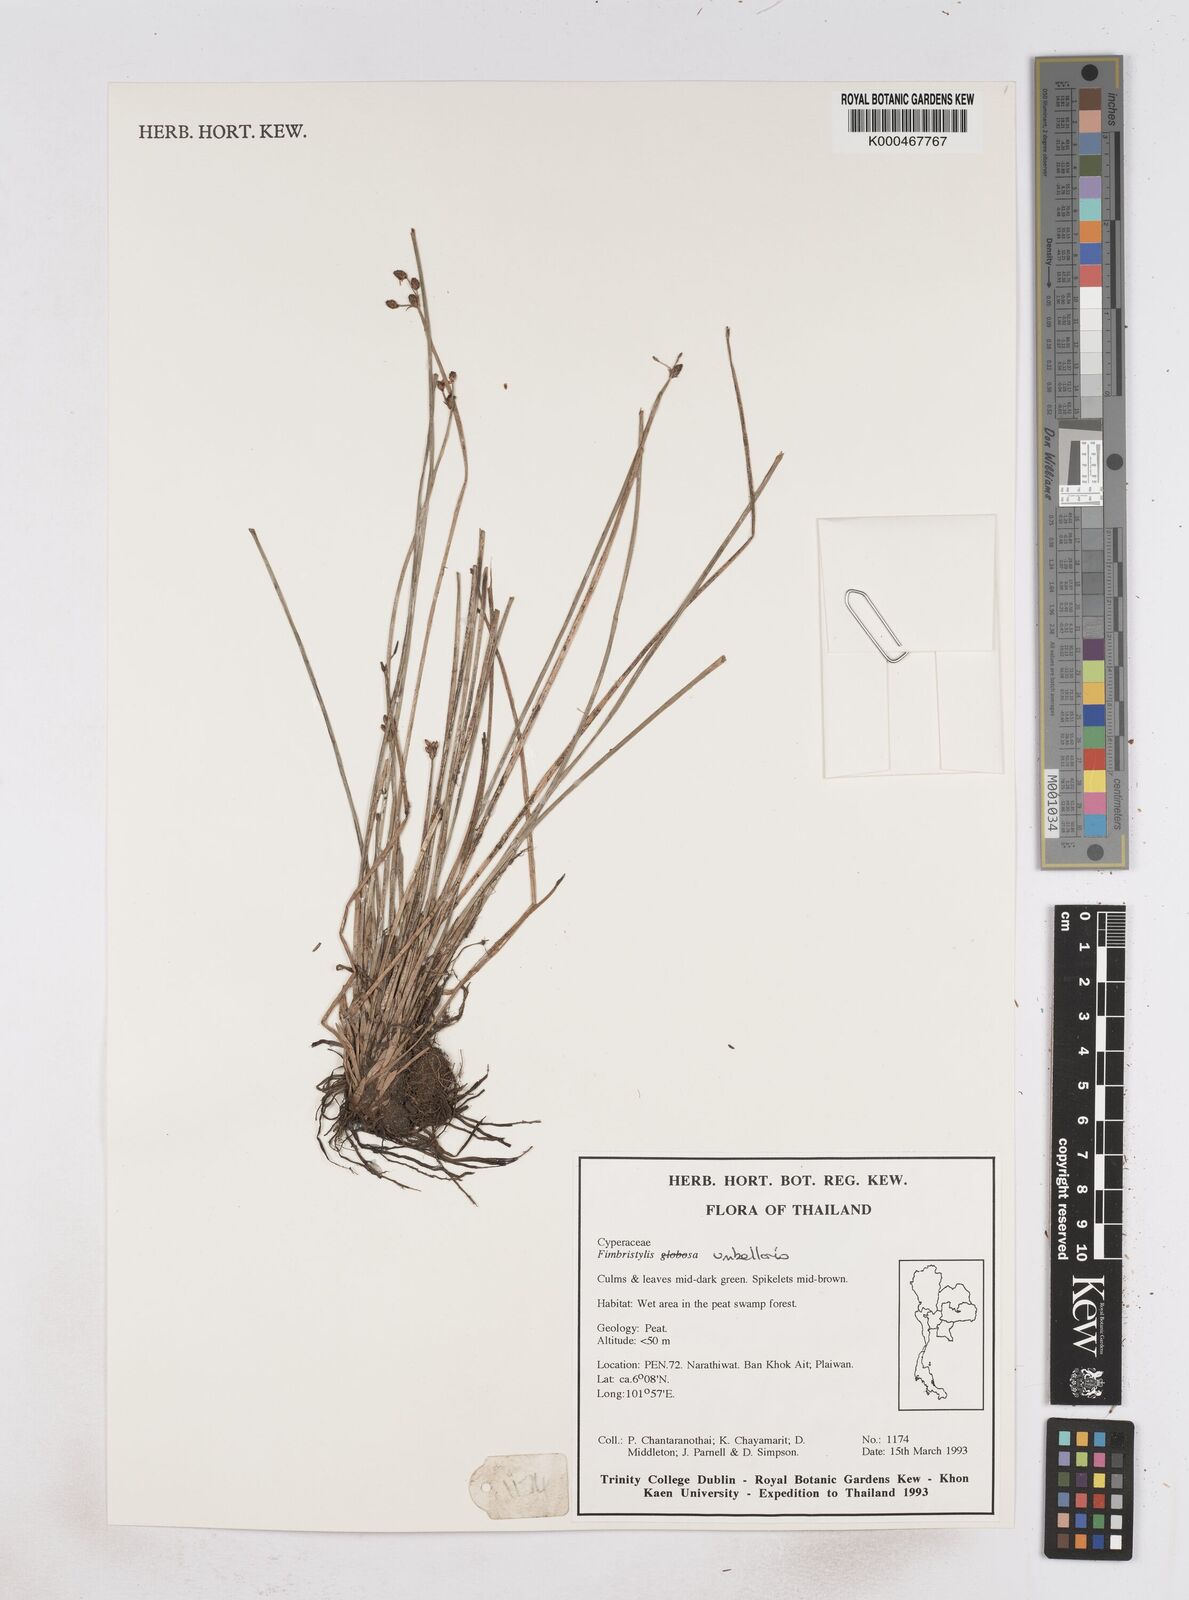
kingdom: Plantae
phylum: Tracheophyta
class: Liliopsida
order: Poales
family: Cyperaceae
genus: Fimbristylis
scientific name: Fimbristylis umbellaris
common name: Globular fimbristylis
